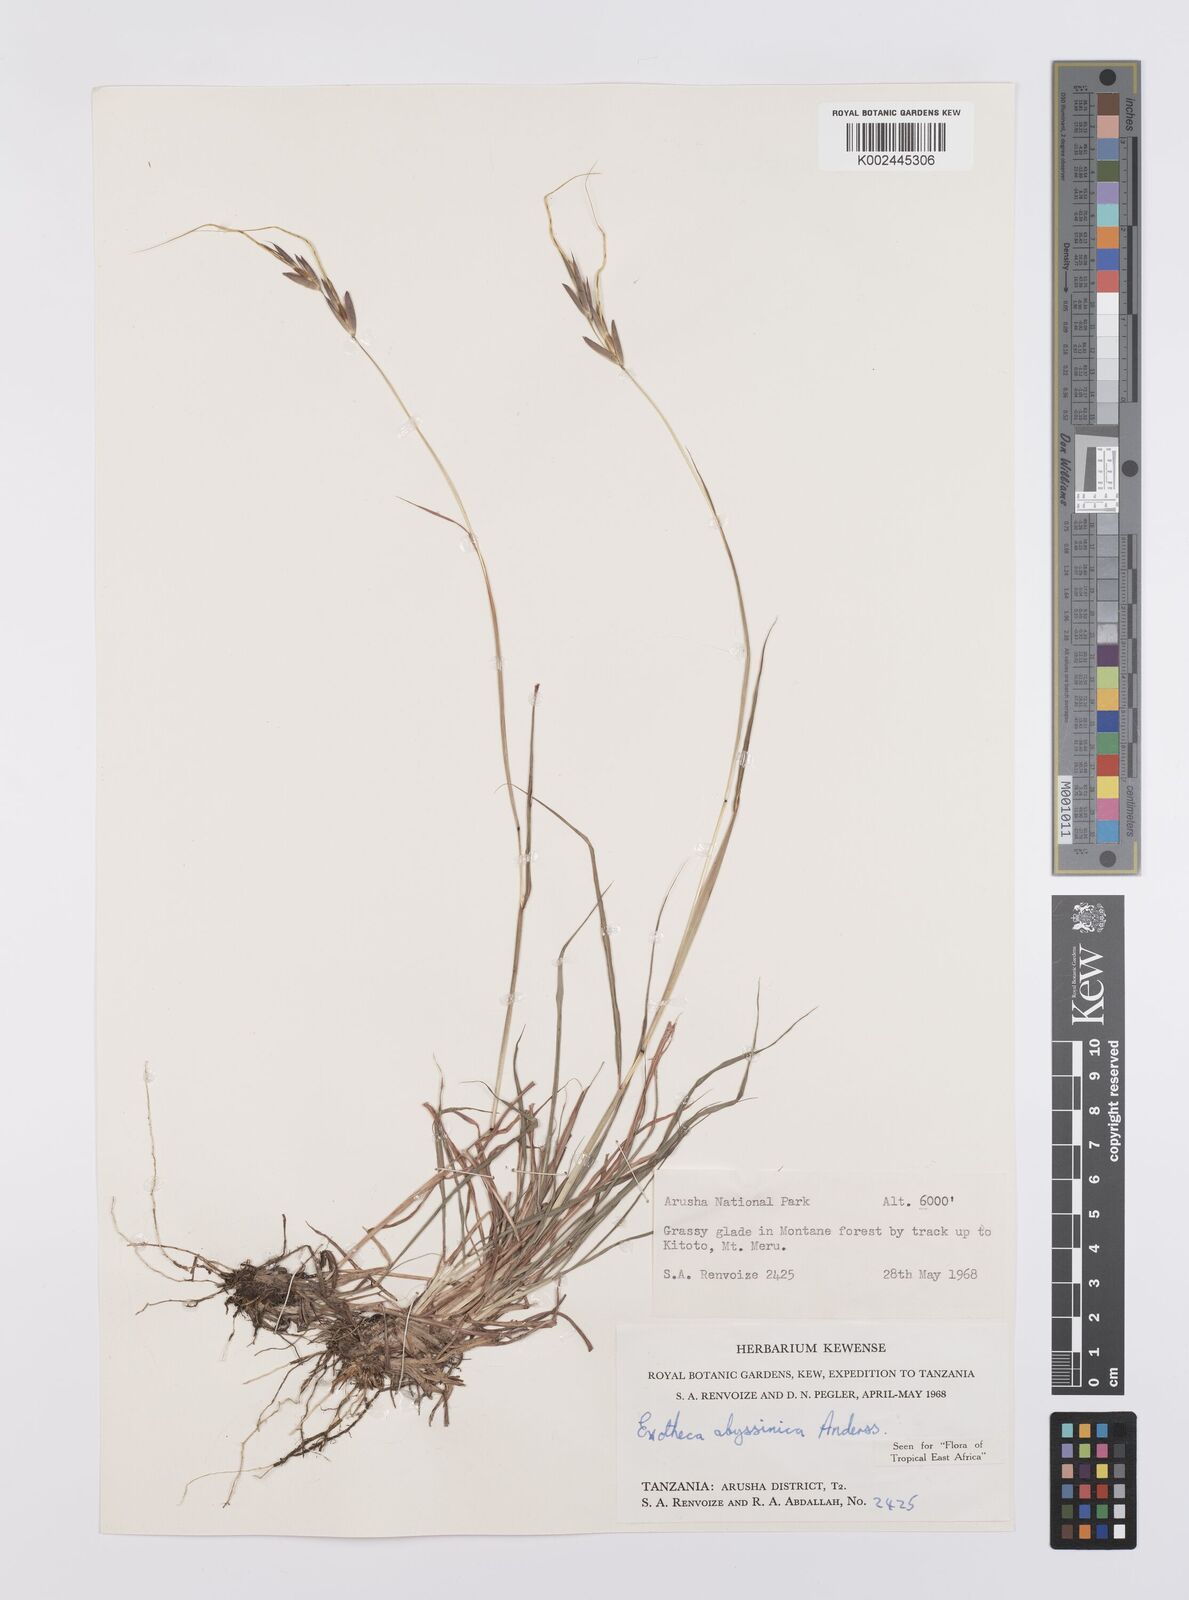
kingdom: Plantae
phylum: Tracheophyta
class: Liliopsida
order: Poales
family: Poaceae
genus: Exotheca
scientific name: Exotheca abyssinica
